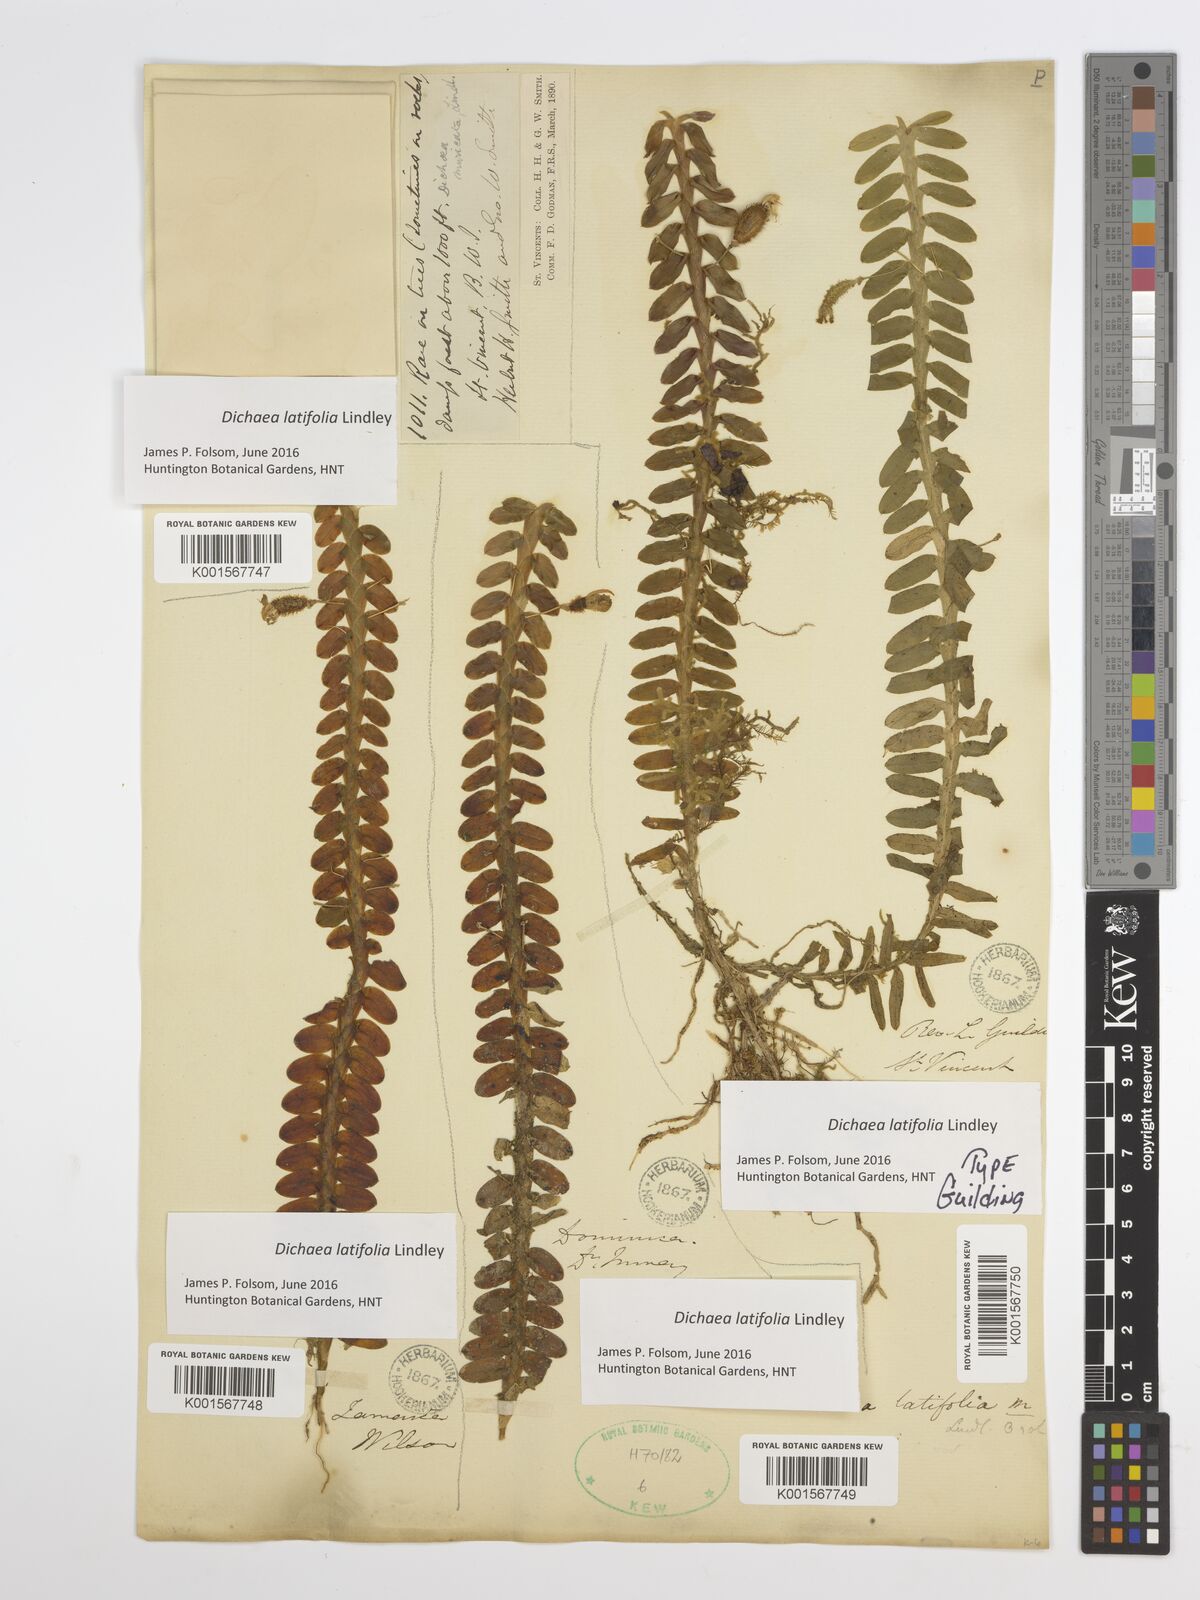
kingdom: Plantae
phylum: Tracheophyta
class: Liliopsida
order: Asparagales
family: Orchidaceae
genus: Dichaea
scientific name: Dichaea latifolia
